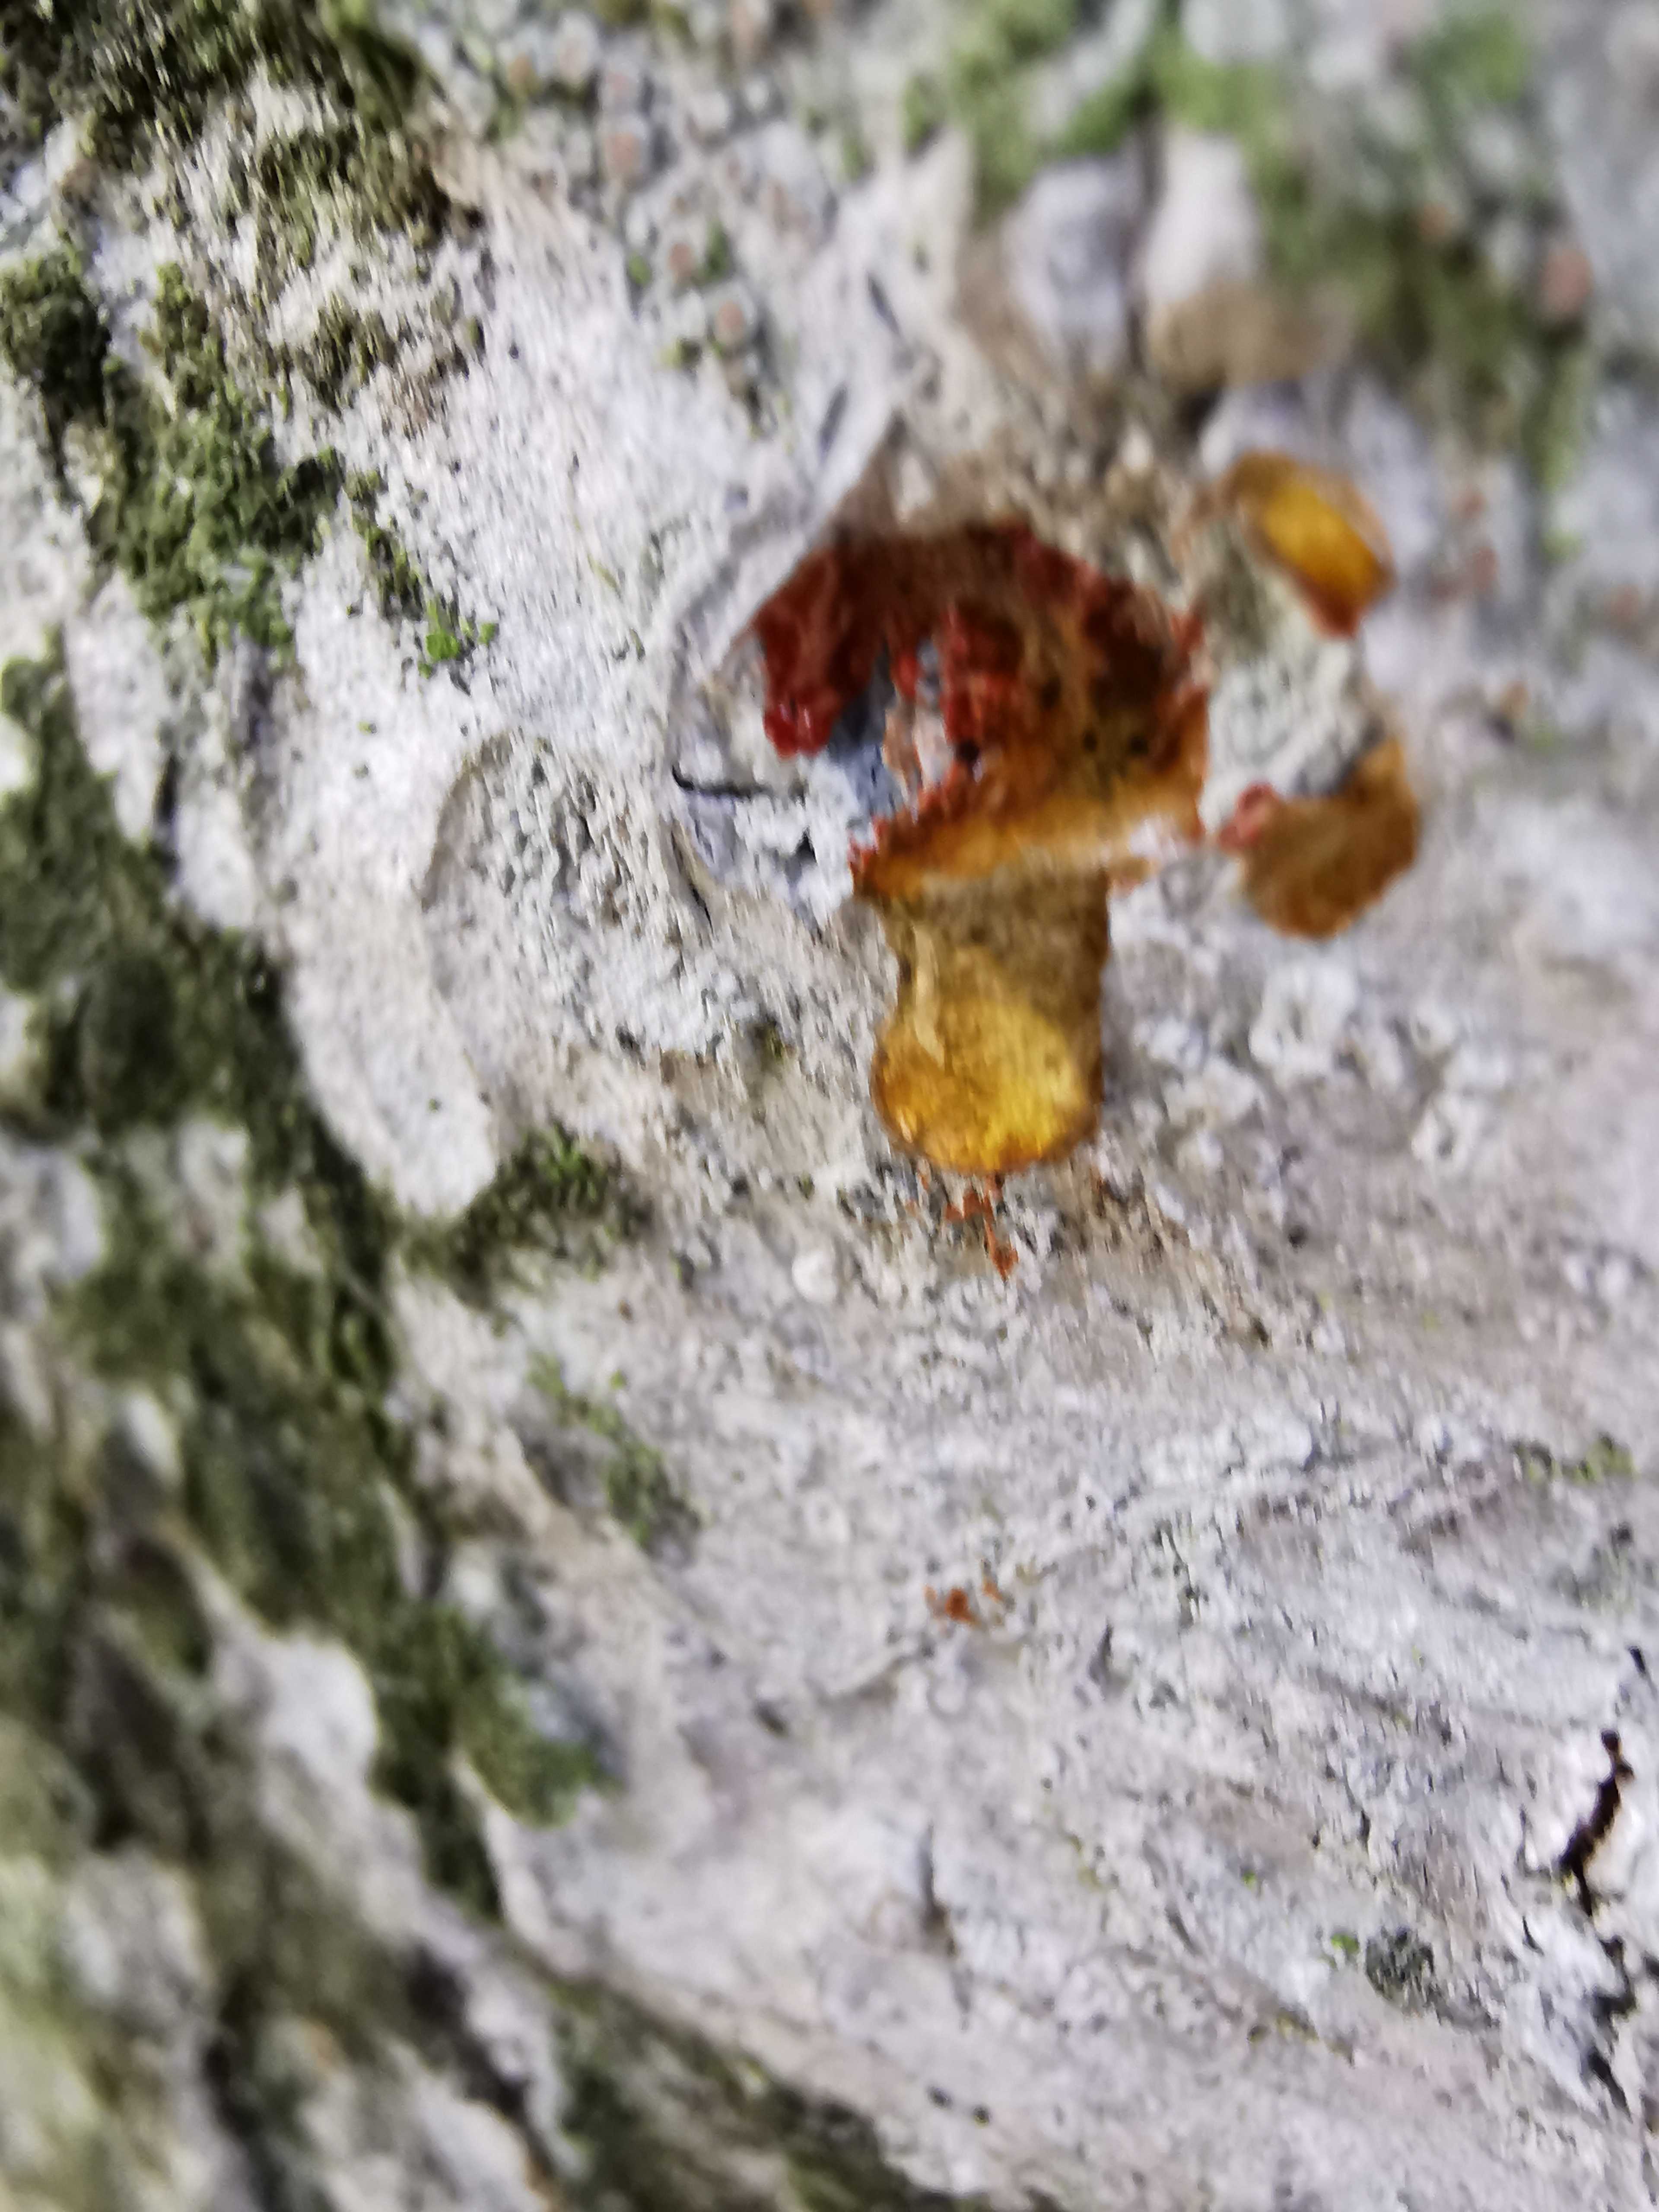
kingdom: Fungi
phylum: Ascomycota
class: Lecanoromycetes
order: Ostropales
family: Phlyctidaceae
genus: Phlyctis
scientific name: Phlyctis argena
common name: almindelig sølvlav
